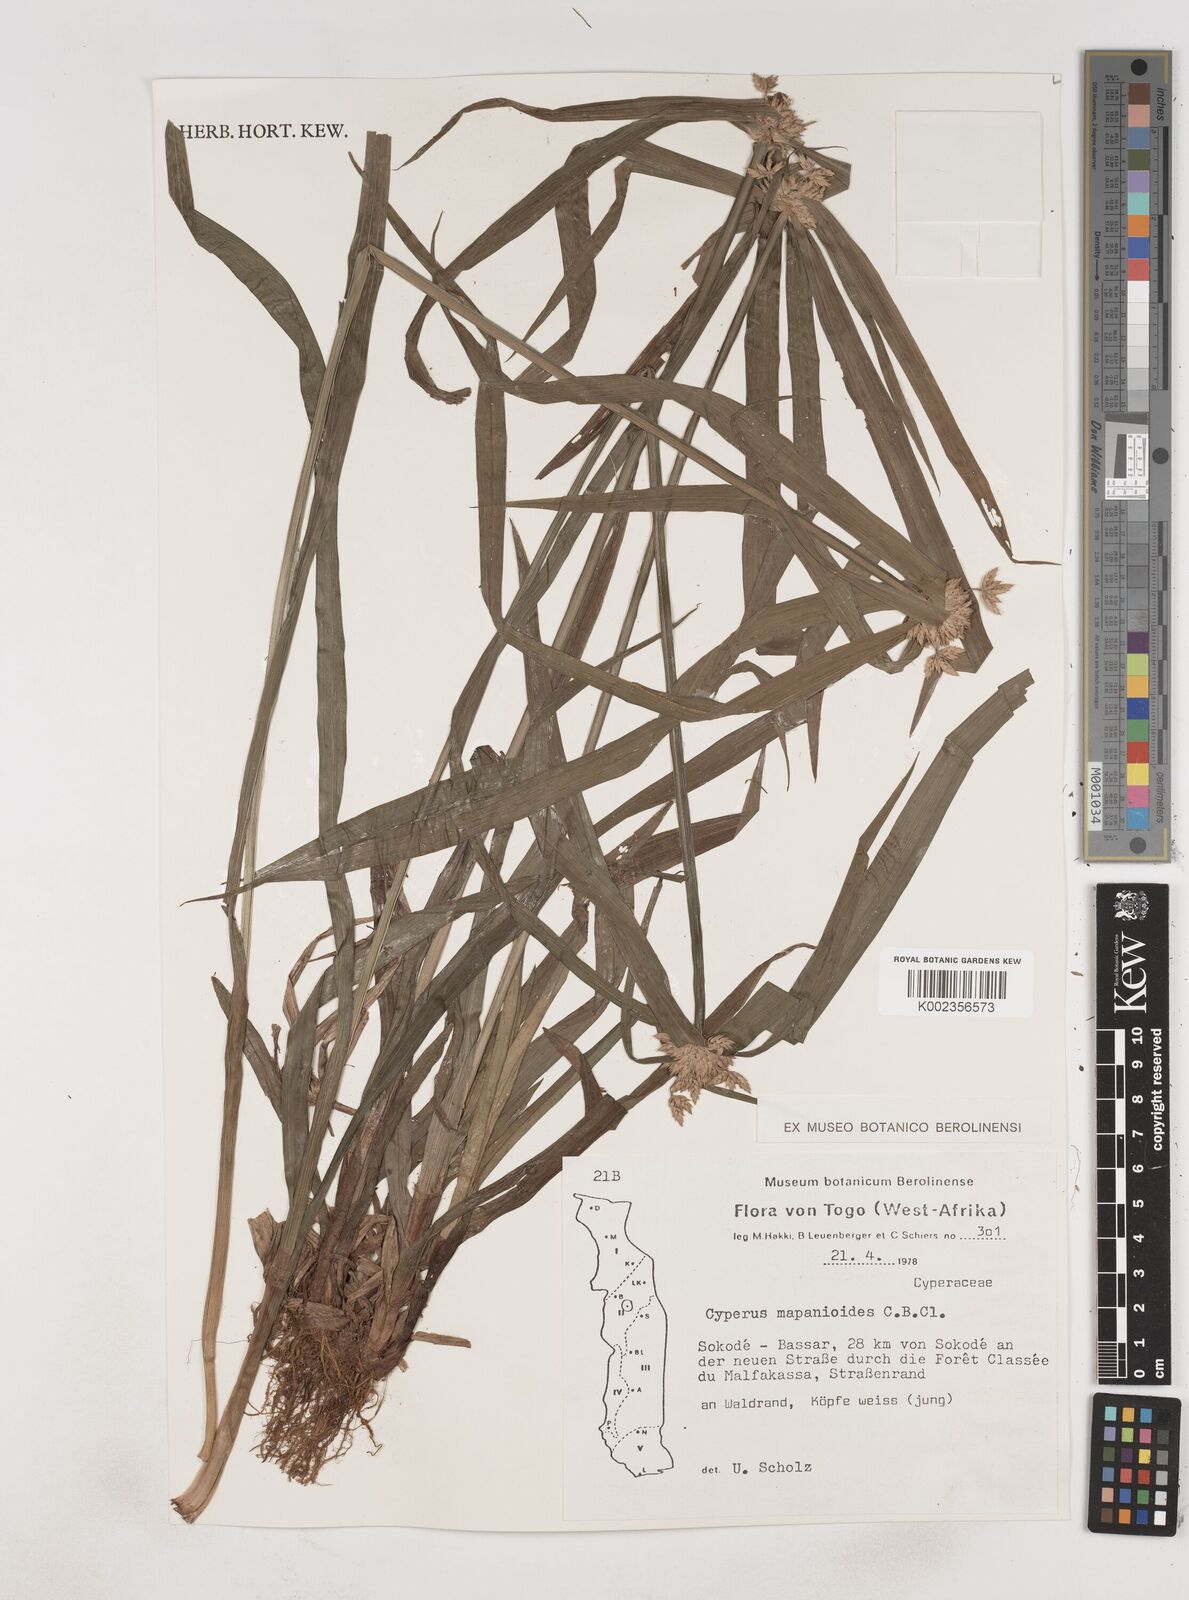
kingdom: Plantae
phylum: Tracheophyta
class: Liliopsida
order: Poales
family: Cyperaceae
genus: Cyperus
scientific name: Cyperus mapanioides
